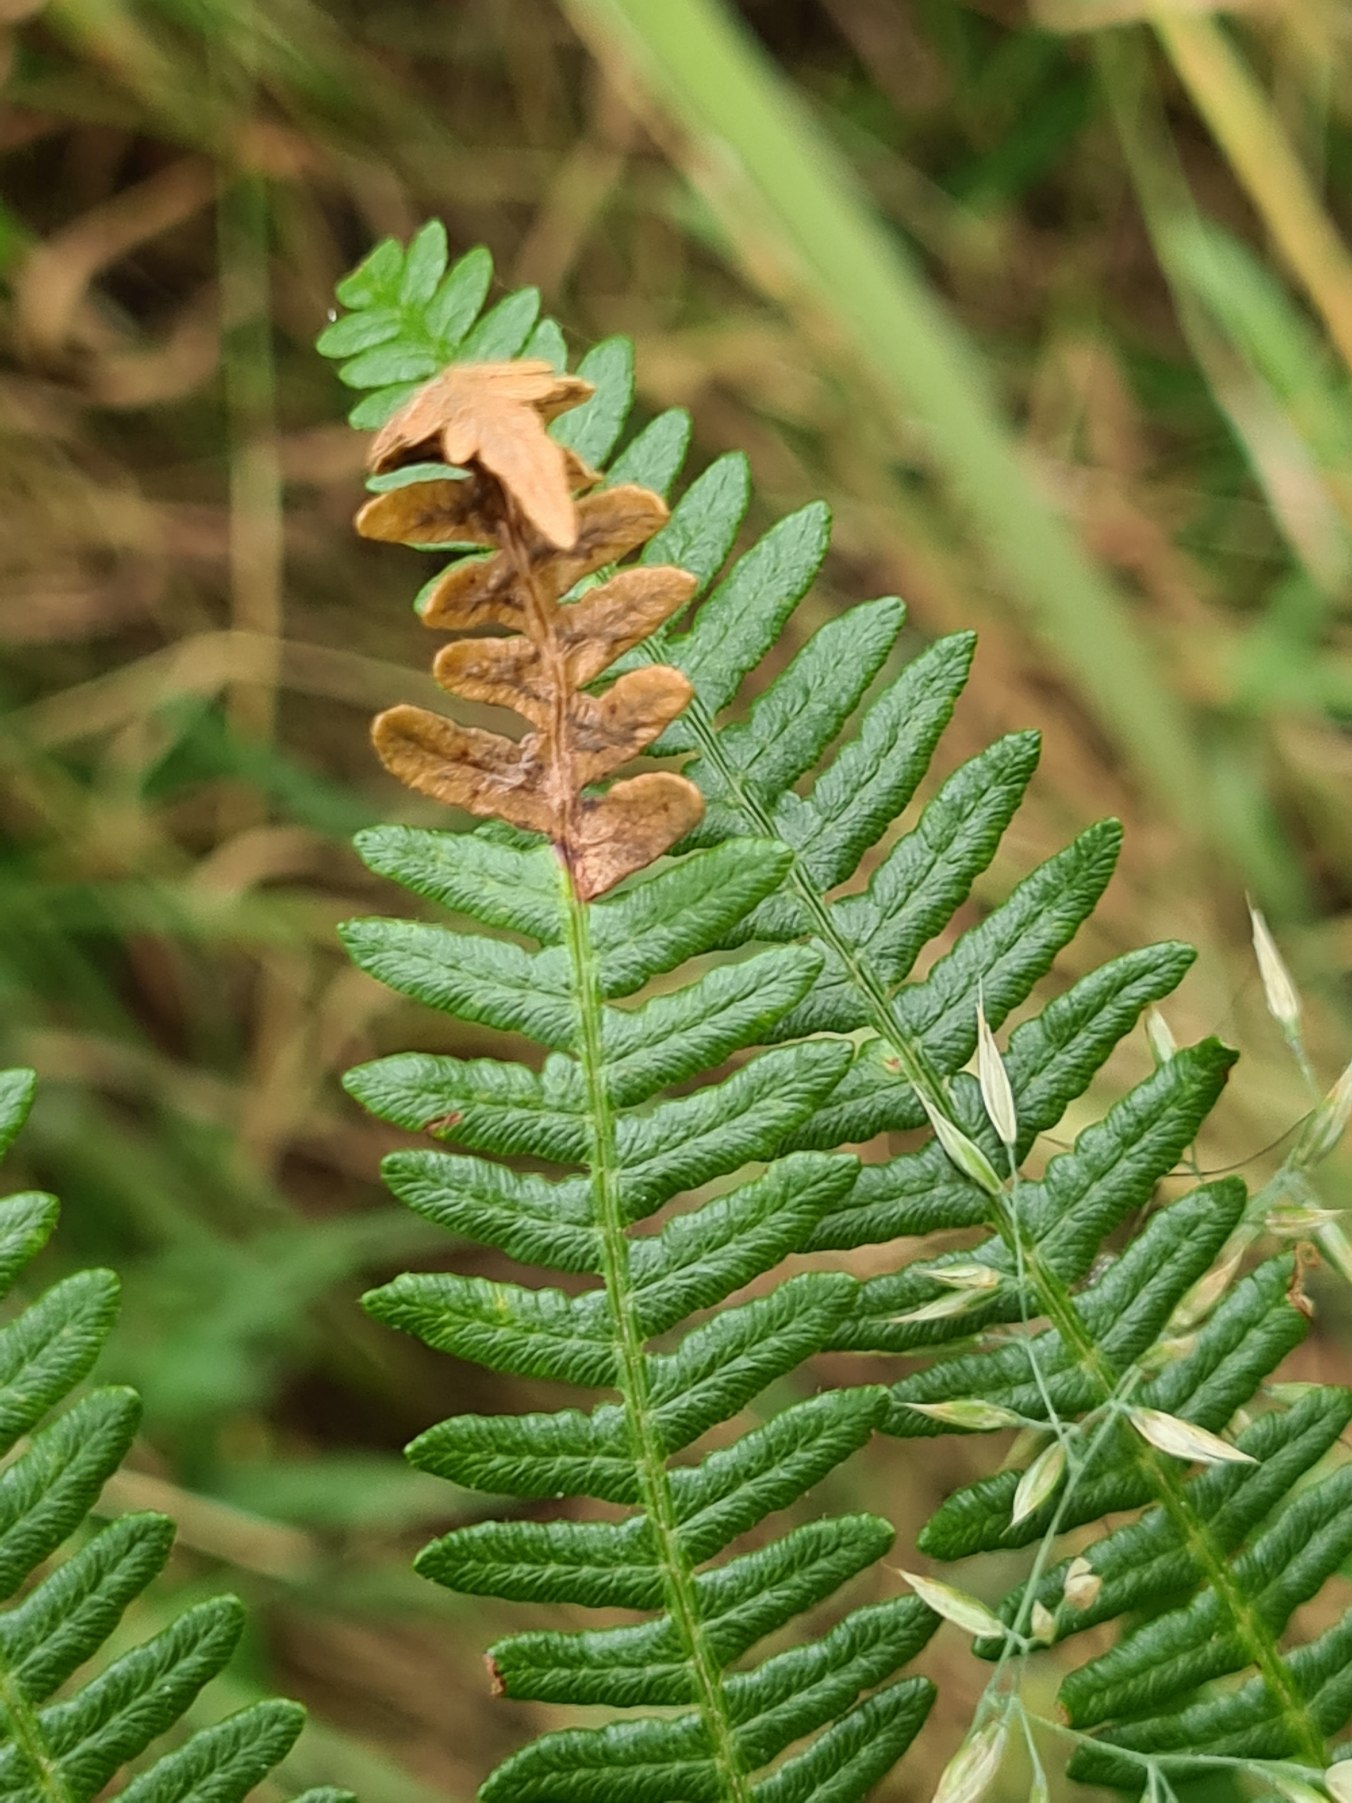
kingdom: Plantae
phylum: Tracheophyta
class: Polypodiopsida
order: Polypodiales
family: Dennstaedtiaceae
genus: Pteridium
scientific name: Pteridium aquilinum
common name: Ørnebregne
